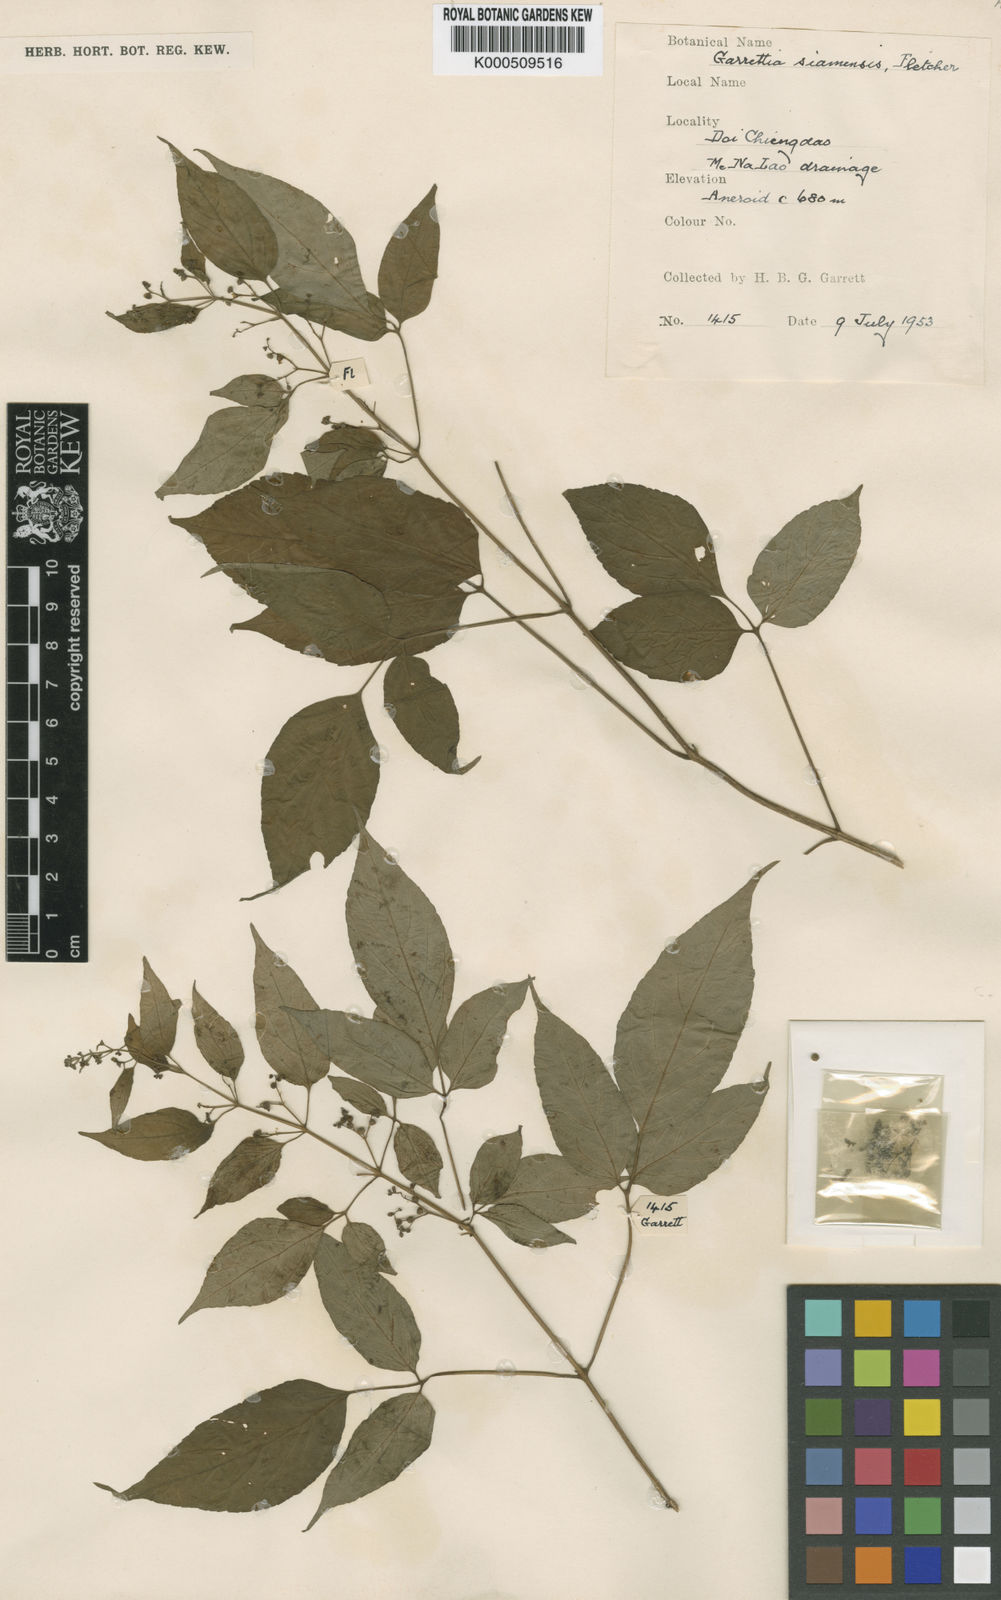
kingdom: Plantae
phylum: Tracheophyta
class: Magnoliopsida
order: Lamiales
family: Lamiaceae
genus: Garrettia
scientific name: Garrettia siamensis
